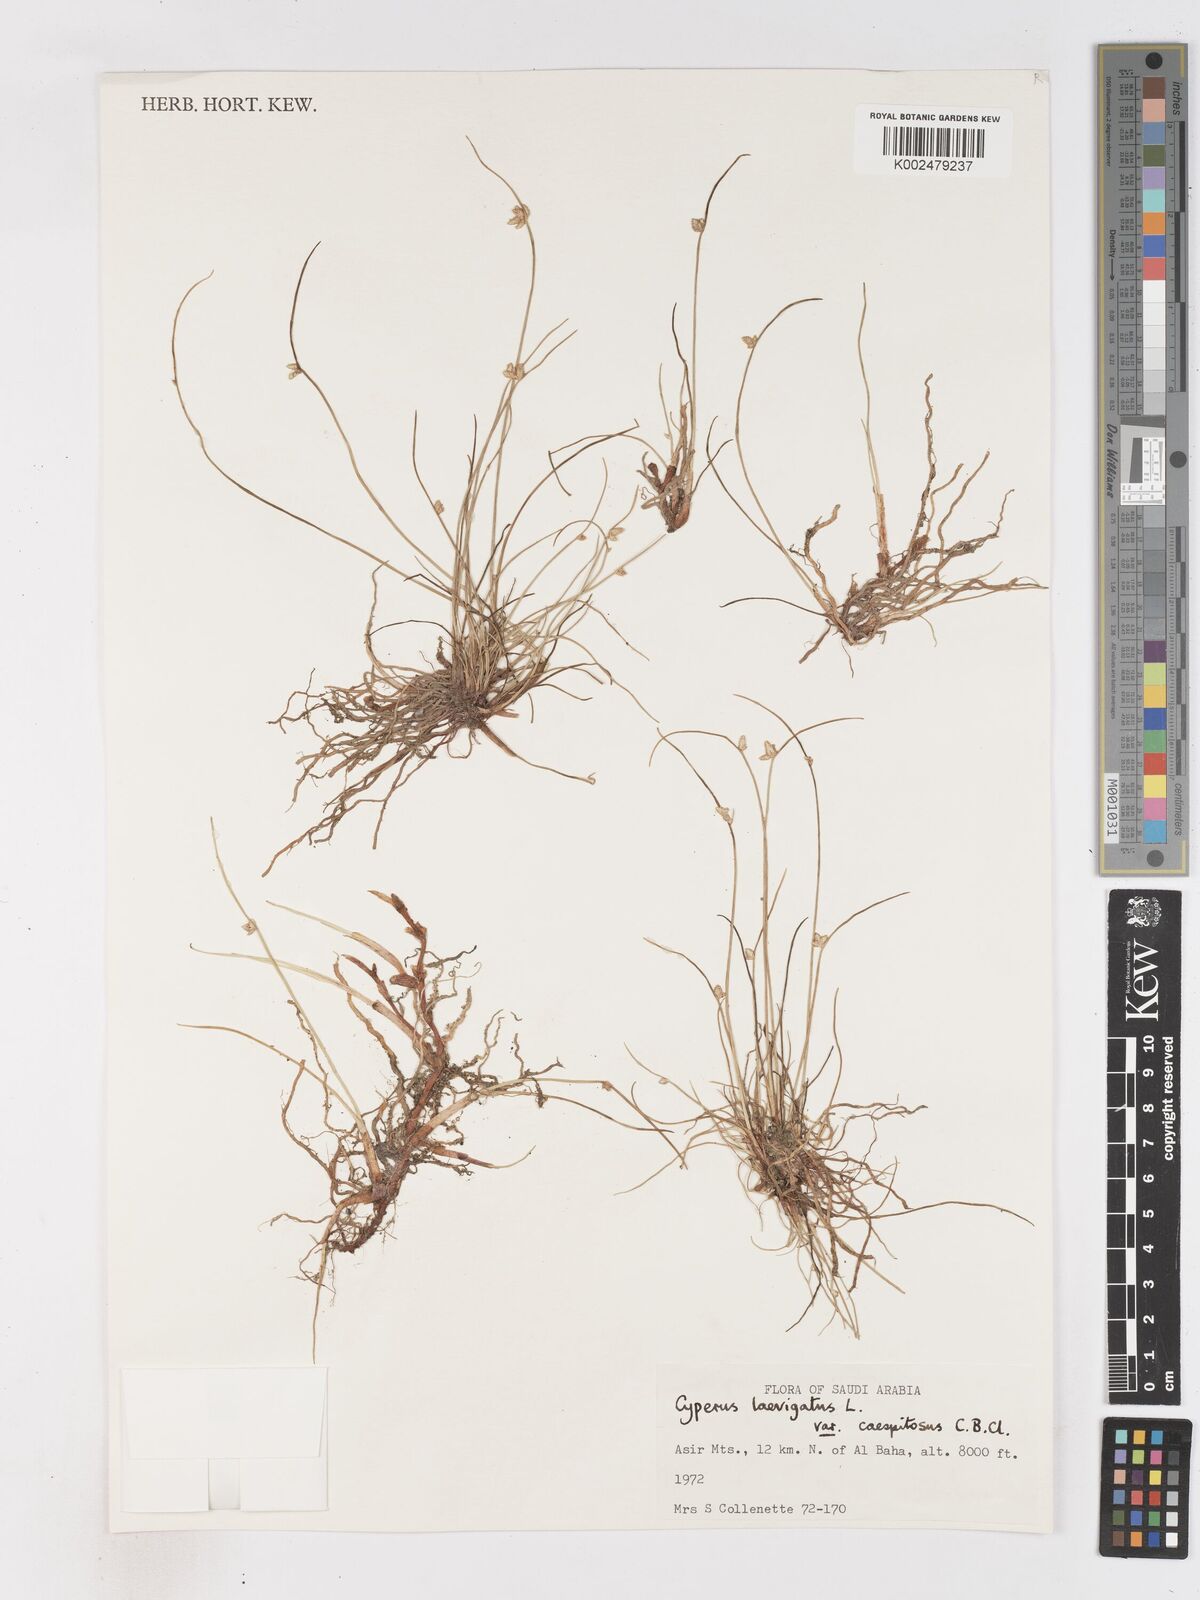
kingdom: Plantae
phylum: Tracheophyta
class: Liliopsida
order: Poales
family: Cyperaceae
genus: Cyperus
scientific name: Cyperus laevigatus
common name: Smooth flat sedge
